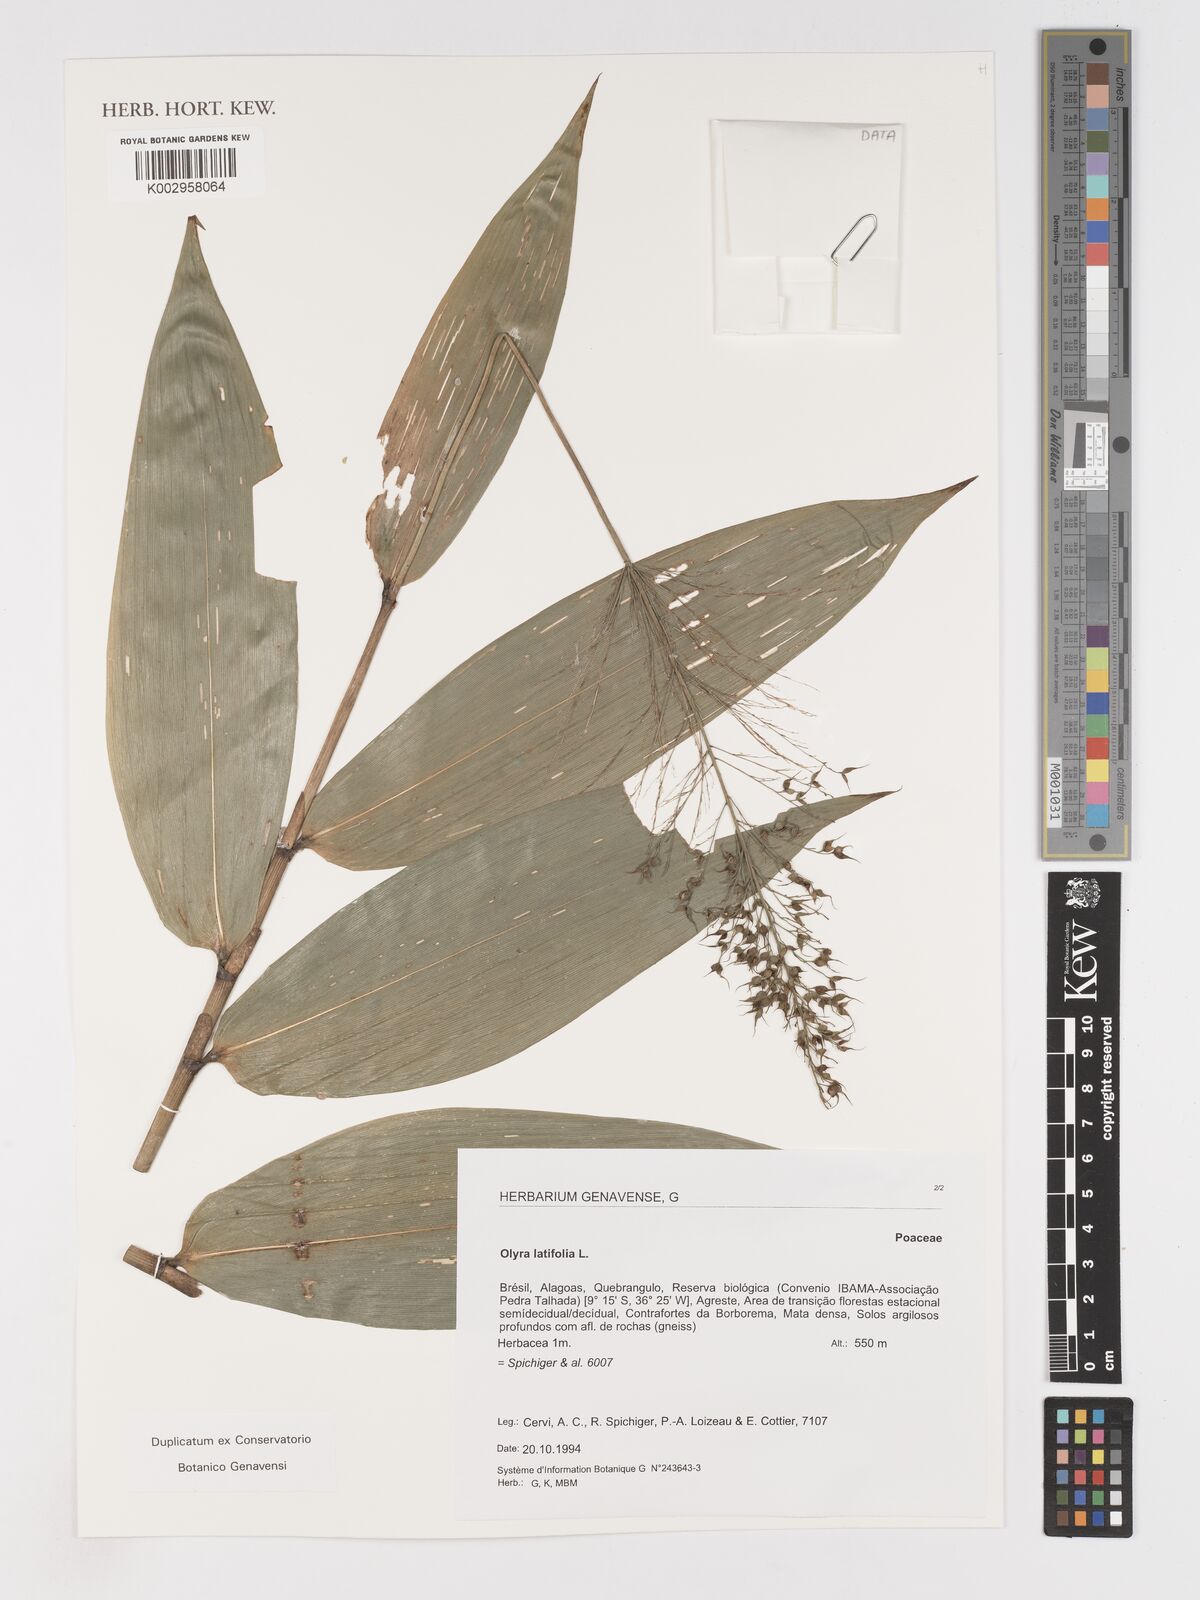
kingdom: Plantae
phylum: Tracheophyta
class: Liliopsida
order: Poales
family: Poaceae
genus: Olyra
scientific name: Olyra latifolia
